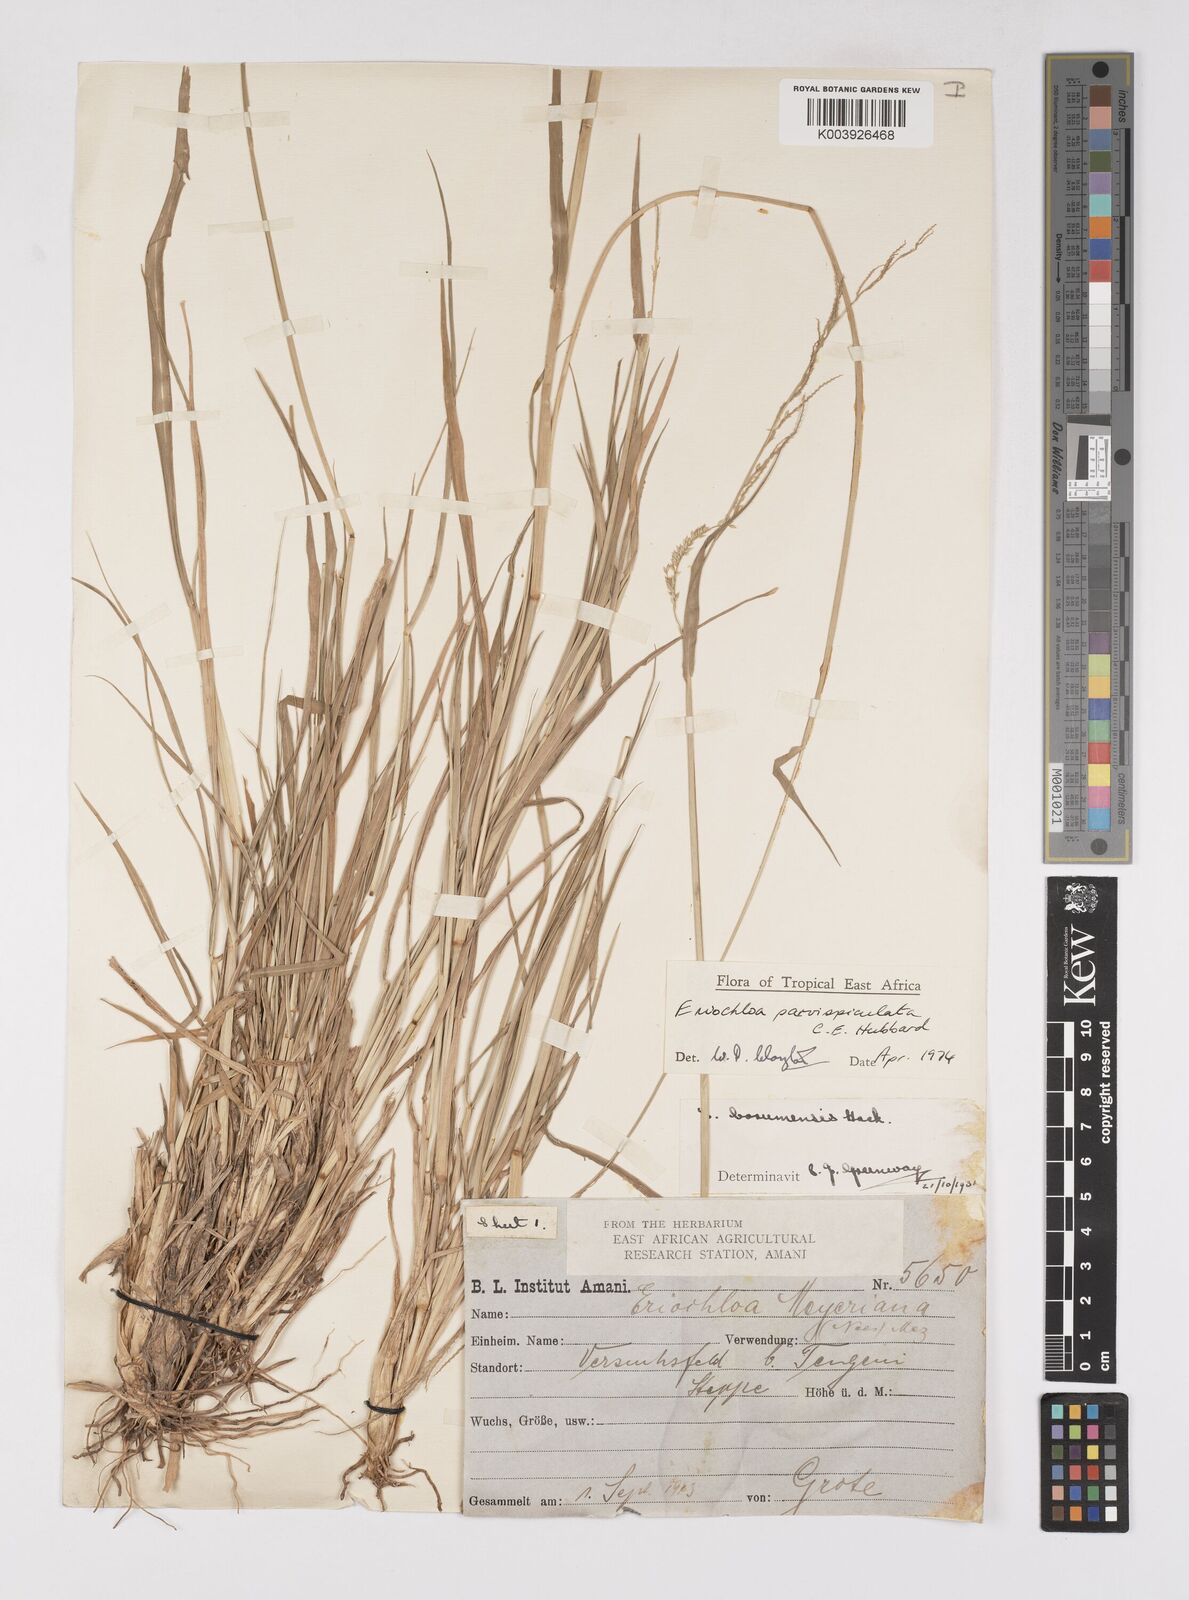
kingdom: Plantae
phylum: Tracheophyta
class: Liliopsida
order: Poales
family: Poaceae
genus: Eriochloa
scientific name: Eriochloa parvispiculata
